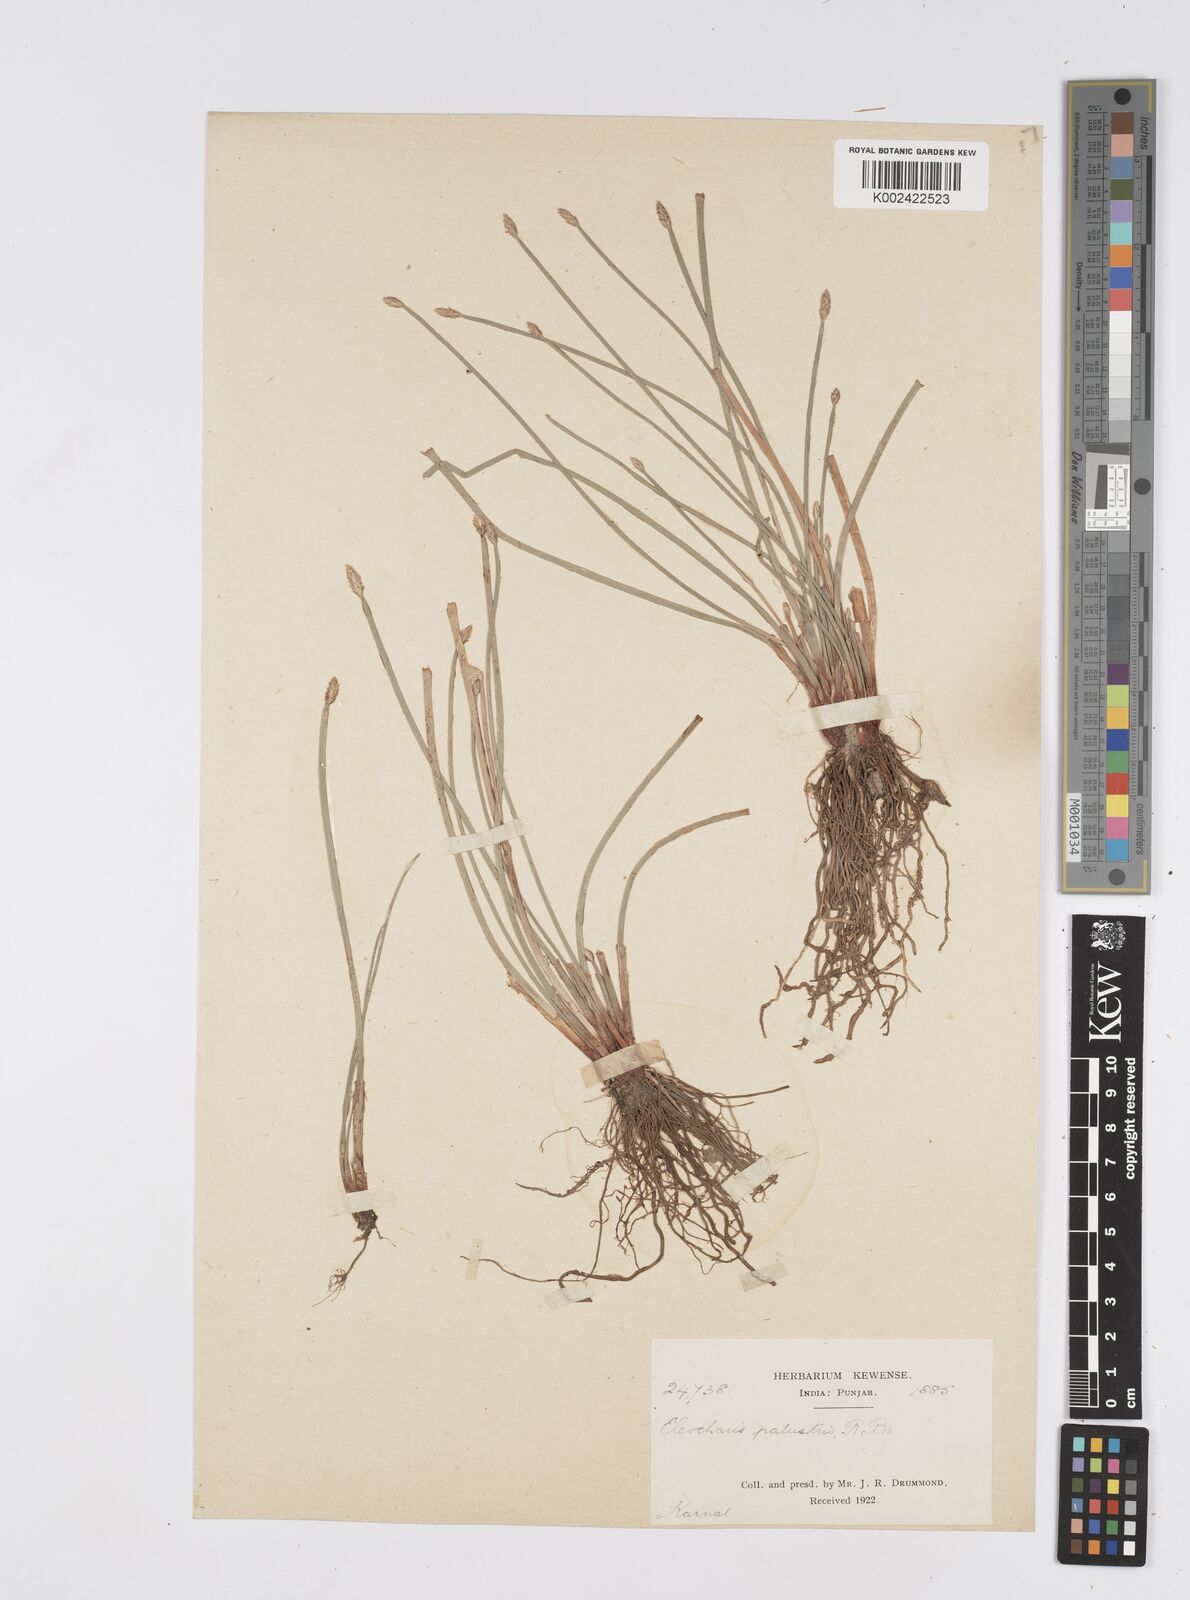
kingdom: Plantae
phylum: Tracheophyta
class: Liliopsida
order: Poales
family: Cyperaceae
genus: Eleocharis
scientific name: Eleocharis palustris
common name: Common spike-rush
